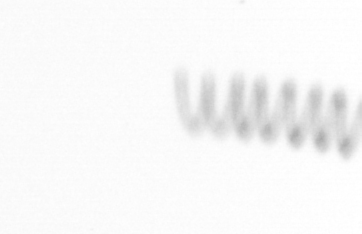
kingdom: Chromista
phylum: Ochrophyta
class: Bacillariophyceae
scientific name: Bacillariophyceae
